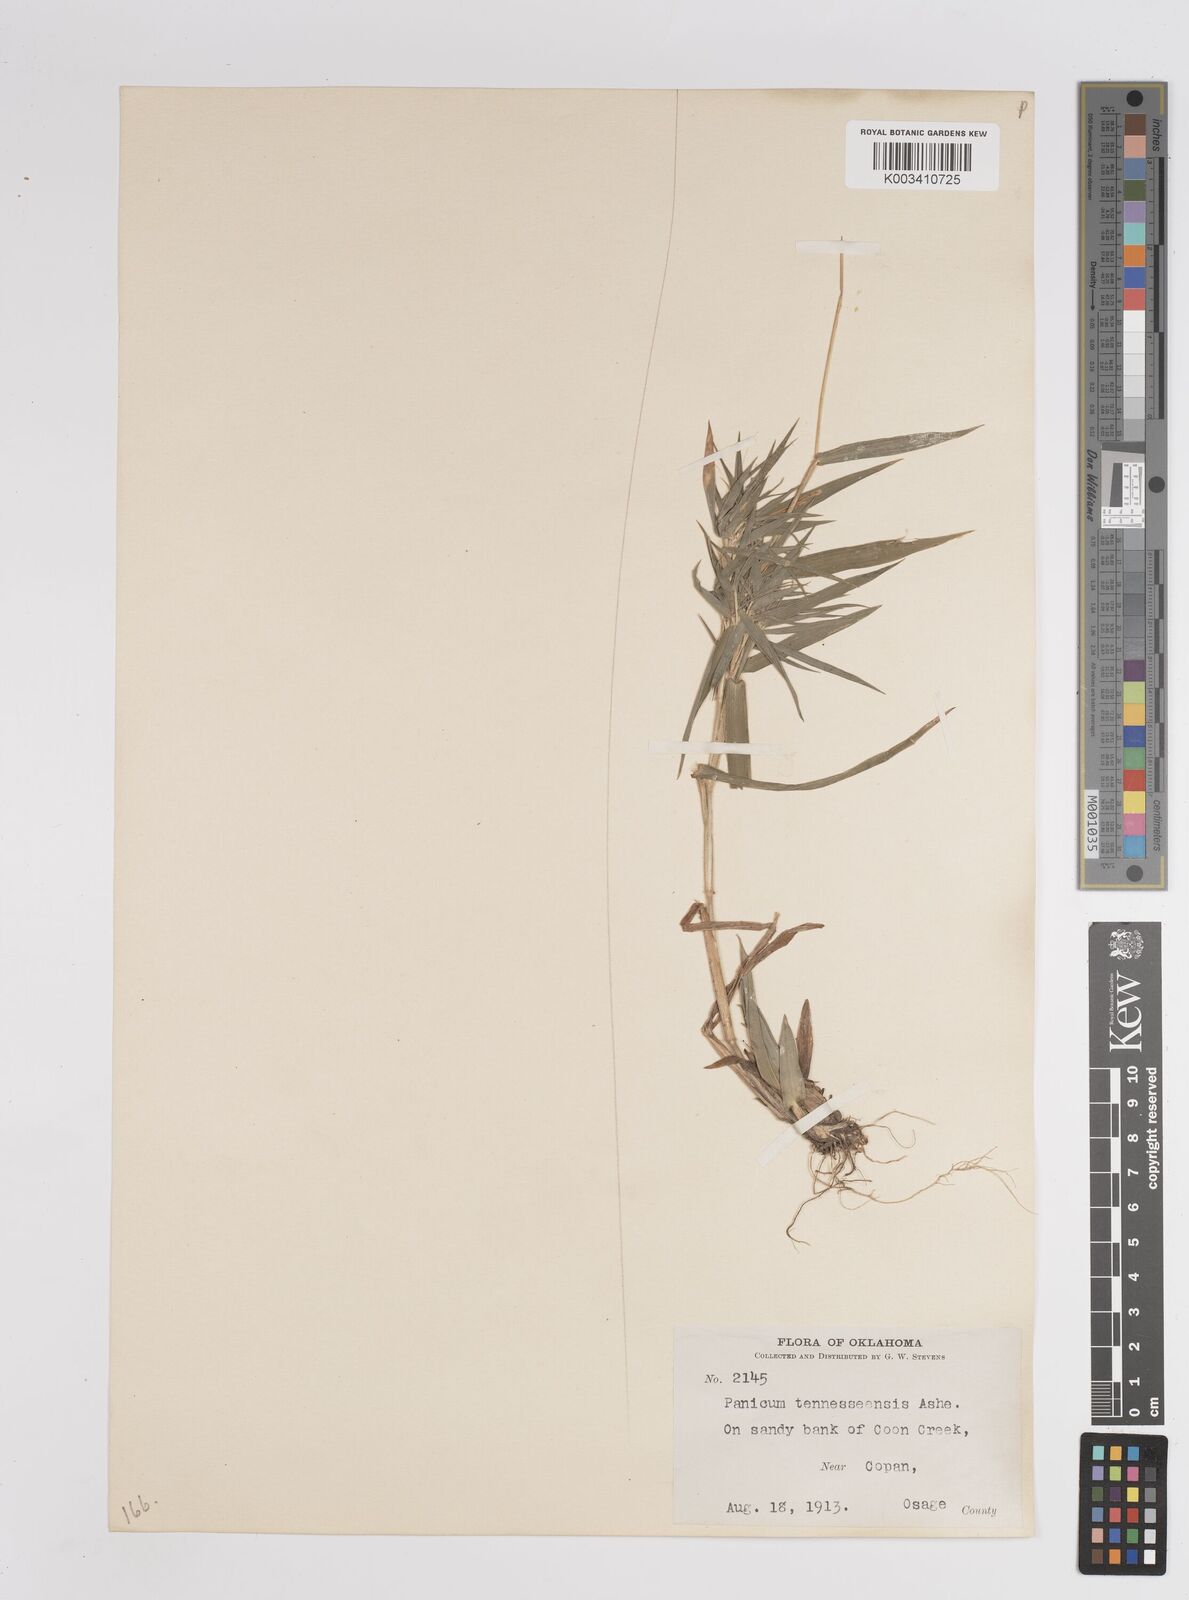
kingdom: Plantae
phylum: Tracheophyta
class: Liliopsida
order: Poales
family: Poaceae
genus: Dichanthelium
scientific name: Dichanthelium acuminatum
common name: Hairy panic grass
